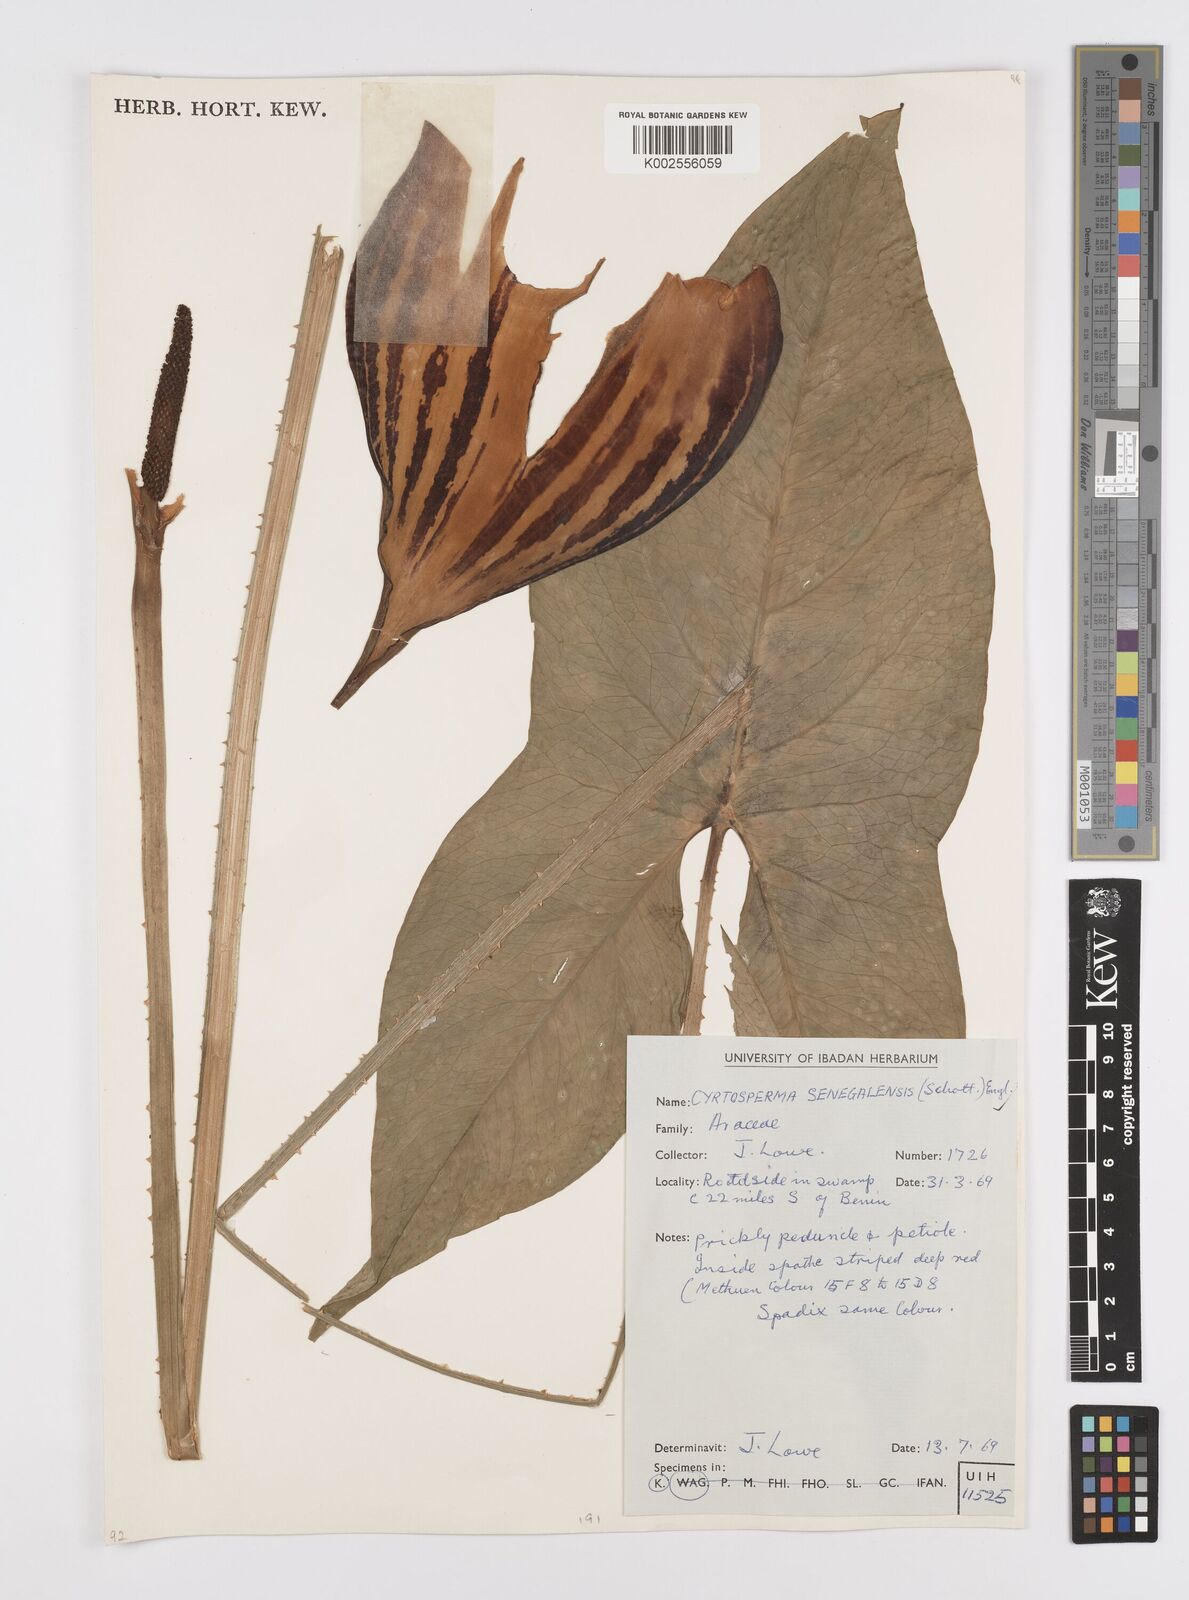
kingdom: Plantae
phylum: Tracheophyta
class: Liliopsida
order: Alismatales
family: Araceae
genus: Lasimorpha
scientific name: Lasimorpha senegalensis
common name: Swamp arum
